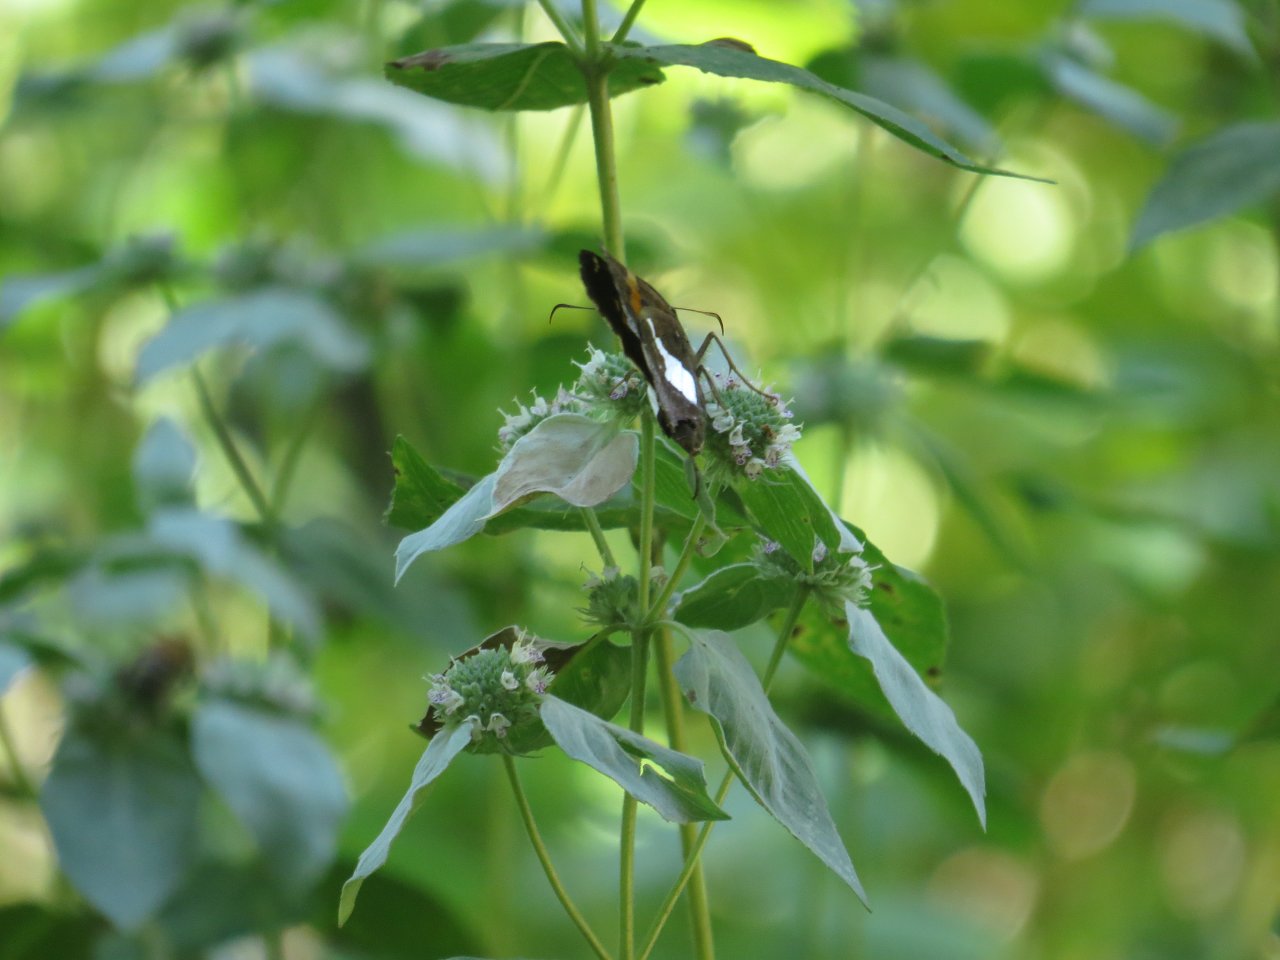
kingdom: Animalia
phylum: Arthropoda
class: Insecta
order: Lepidoptera
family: Hesperiidae
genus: Epargyreus
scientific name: Epargyreus clarus
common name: Silver-spotted Skipper
